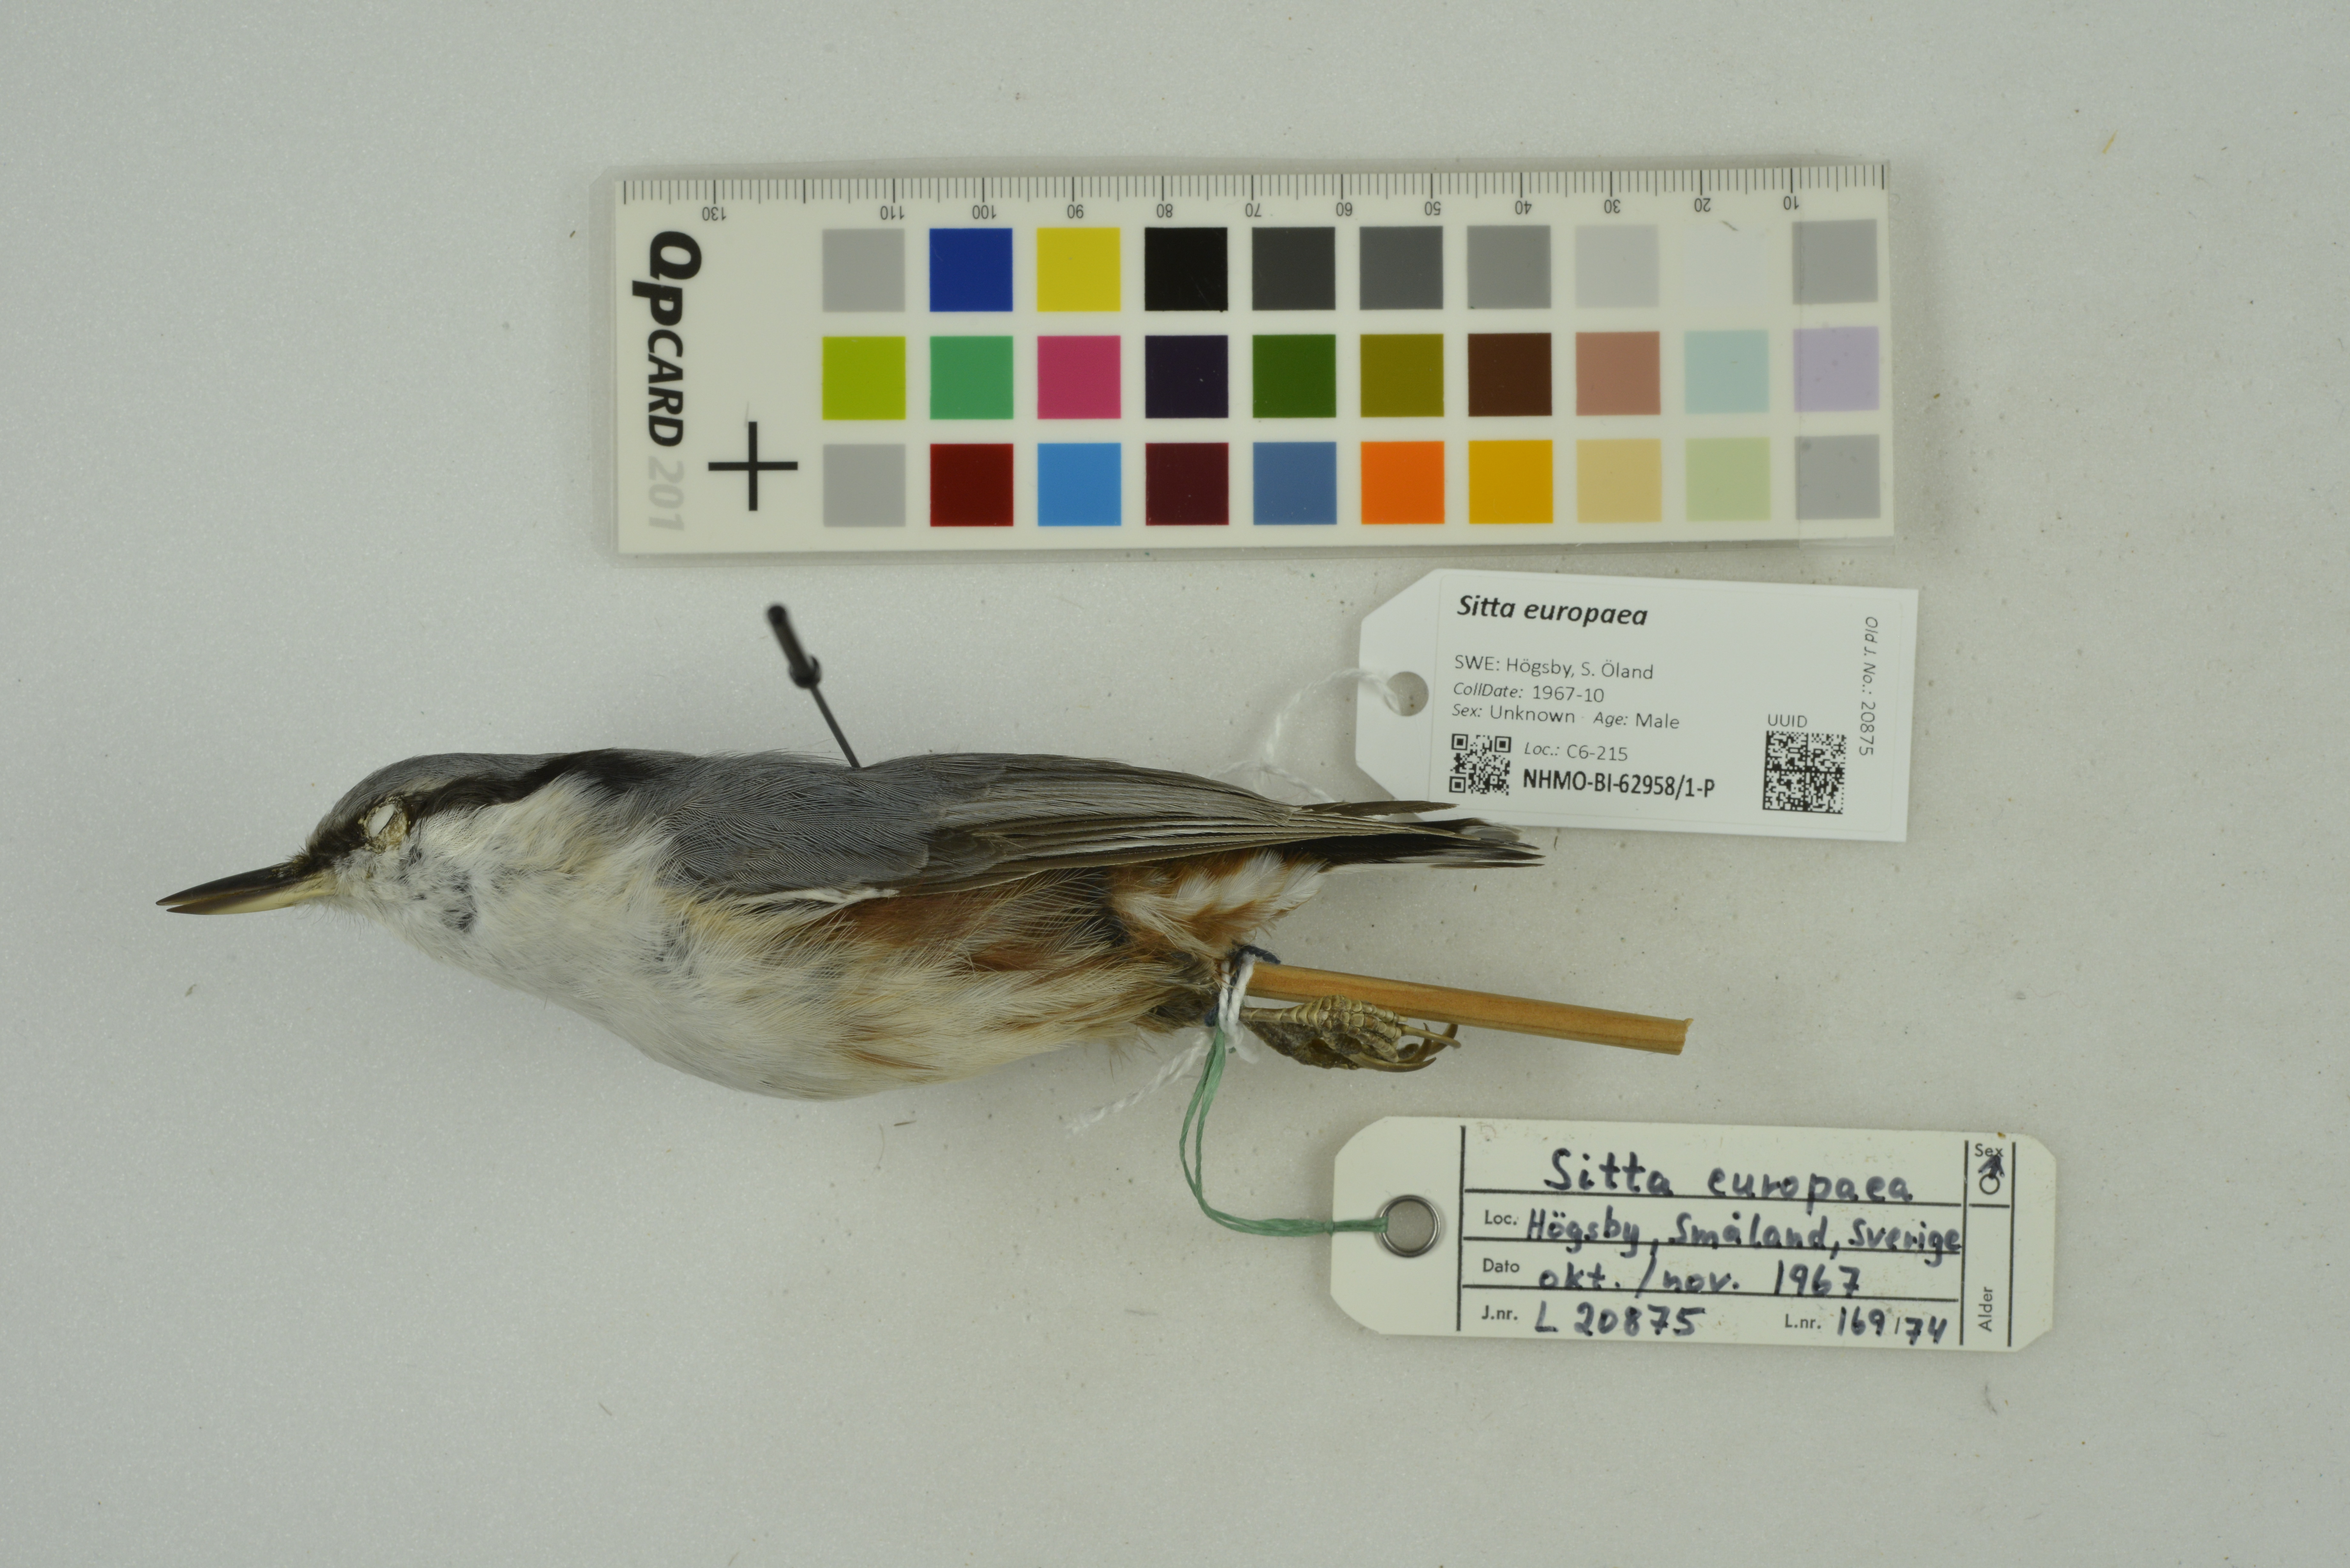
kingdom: Animalia
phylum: Chordata
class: Aves
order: Passeriformes
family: Sittidae
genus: Sitta
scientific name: Sitta europaea
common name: Eurasian nuthatch
